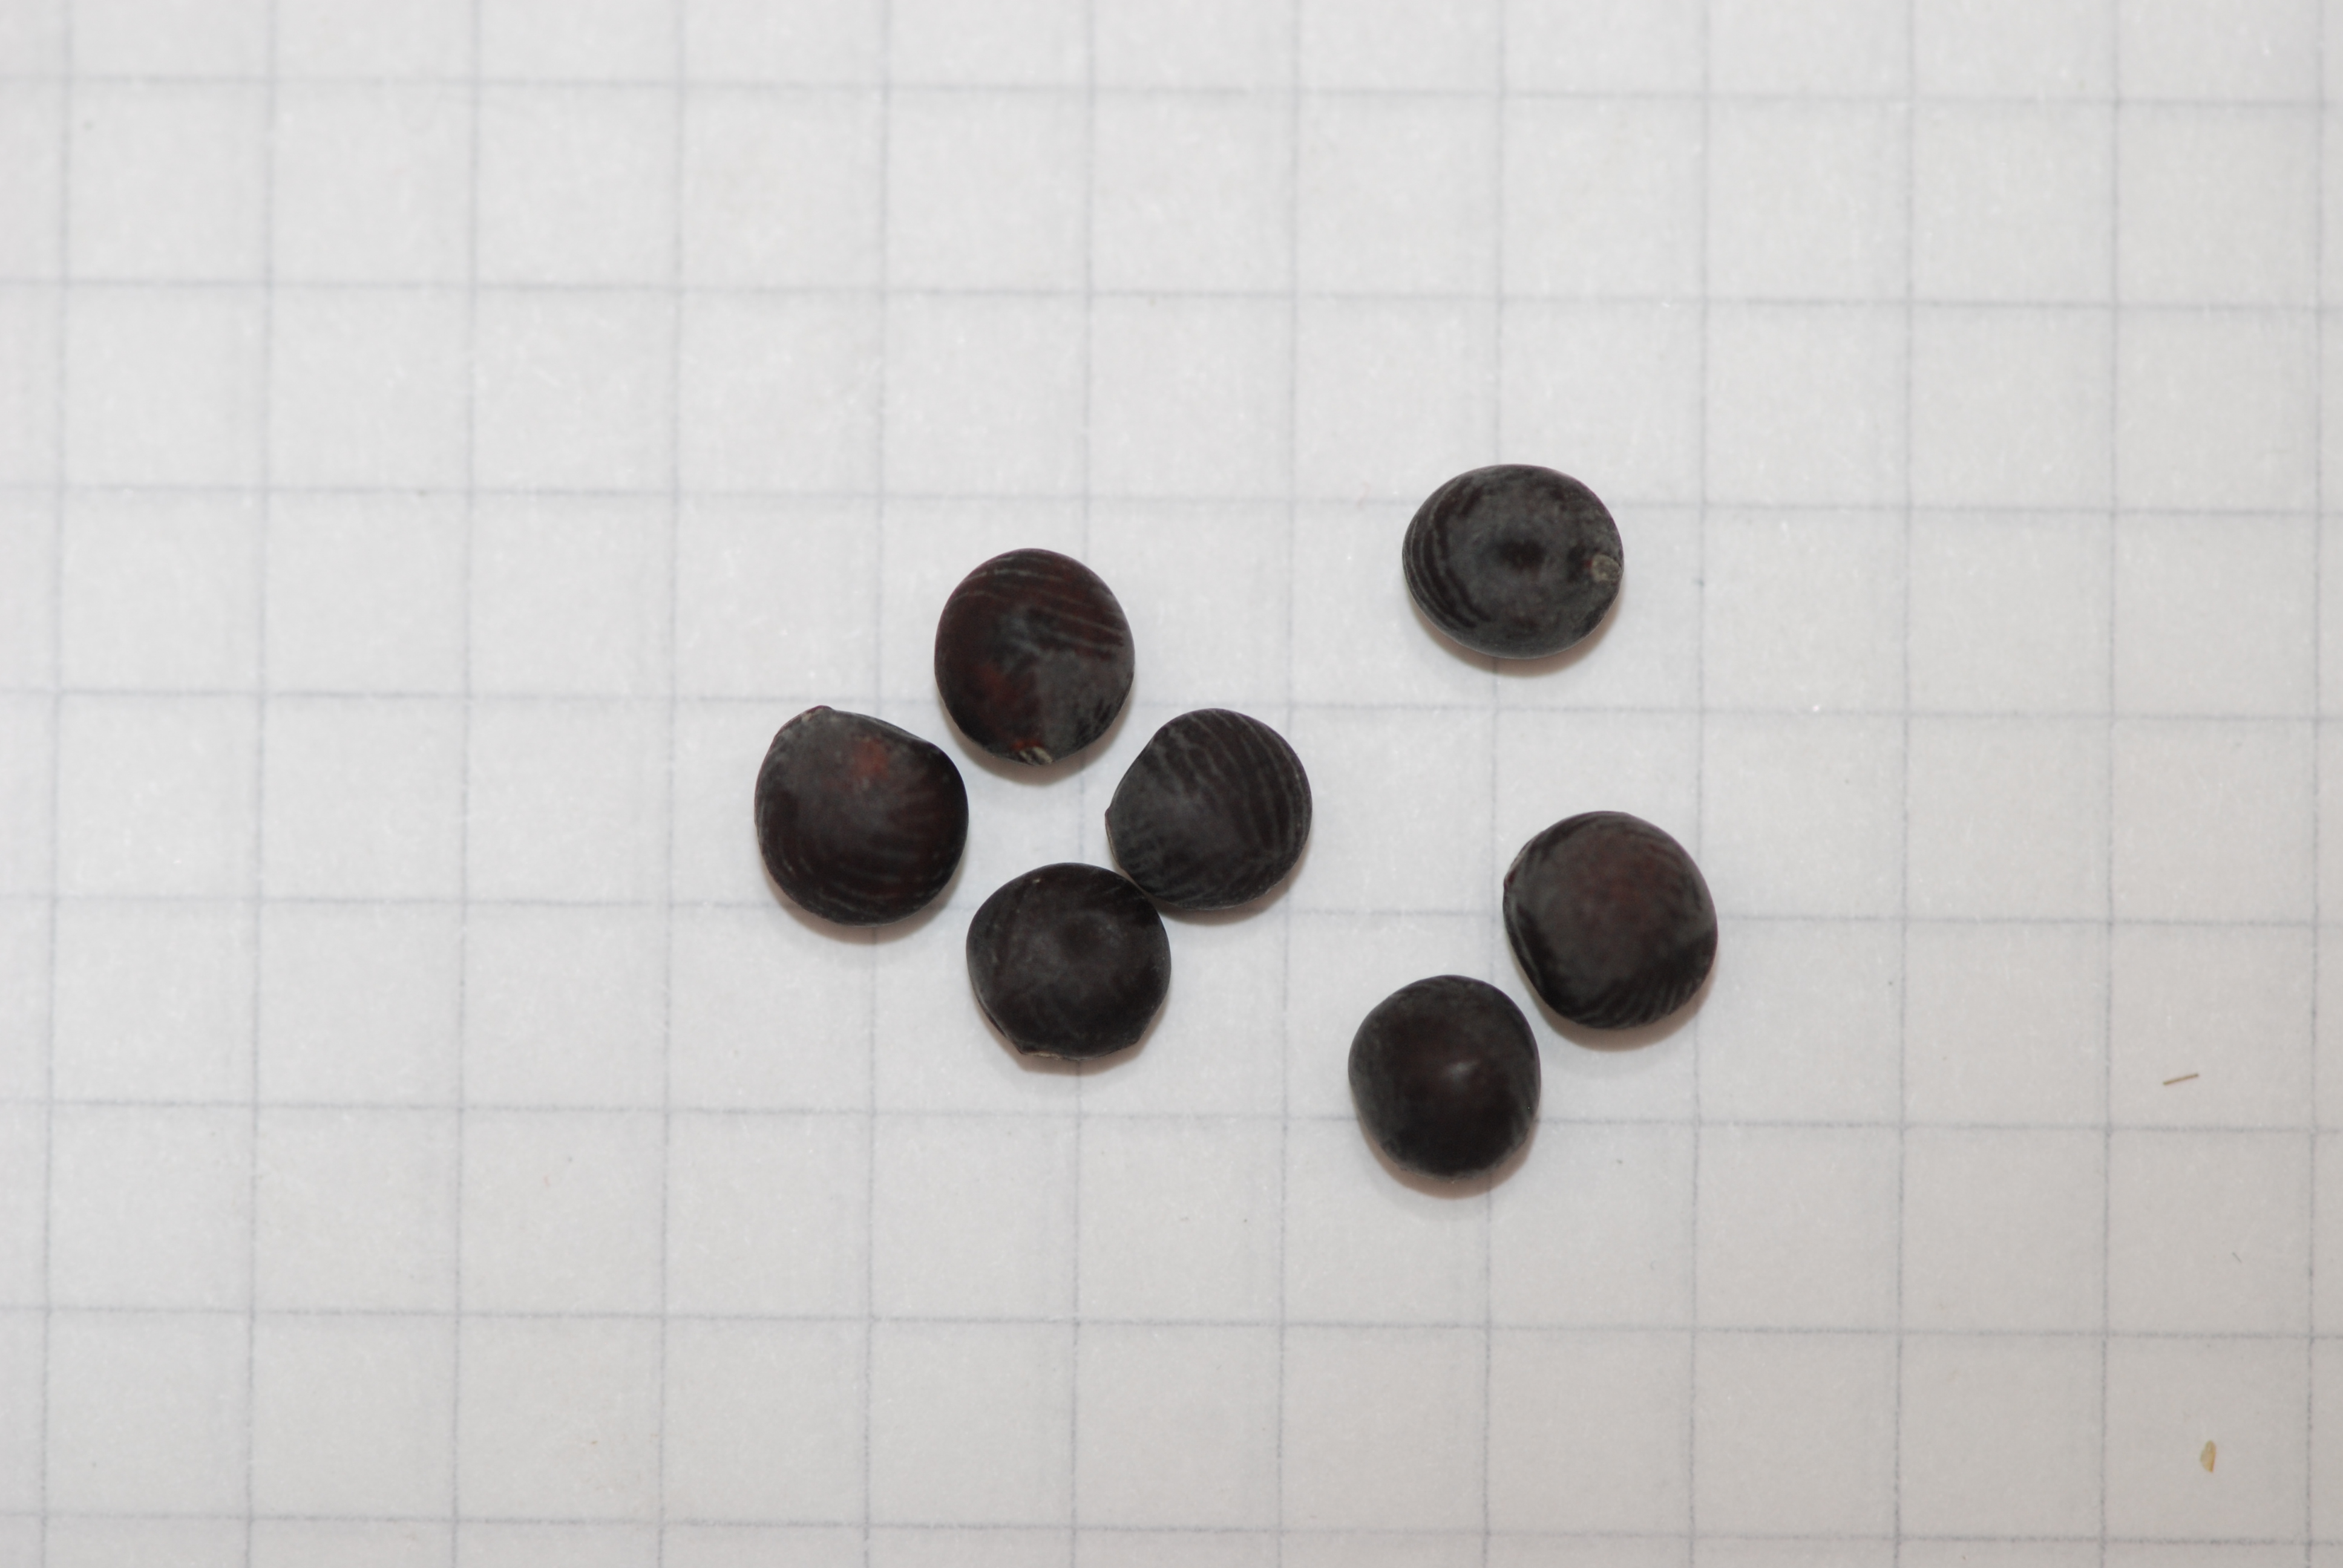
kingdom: Plantae
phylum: Tracheophyta
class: Magnoliopsida
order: Fabales
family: Fabaceae
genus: Lathyrus
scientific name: Lathyrus oleraceus
